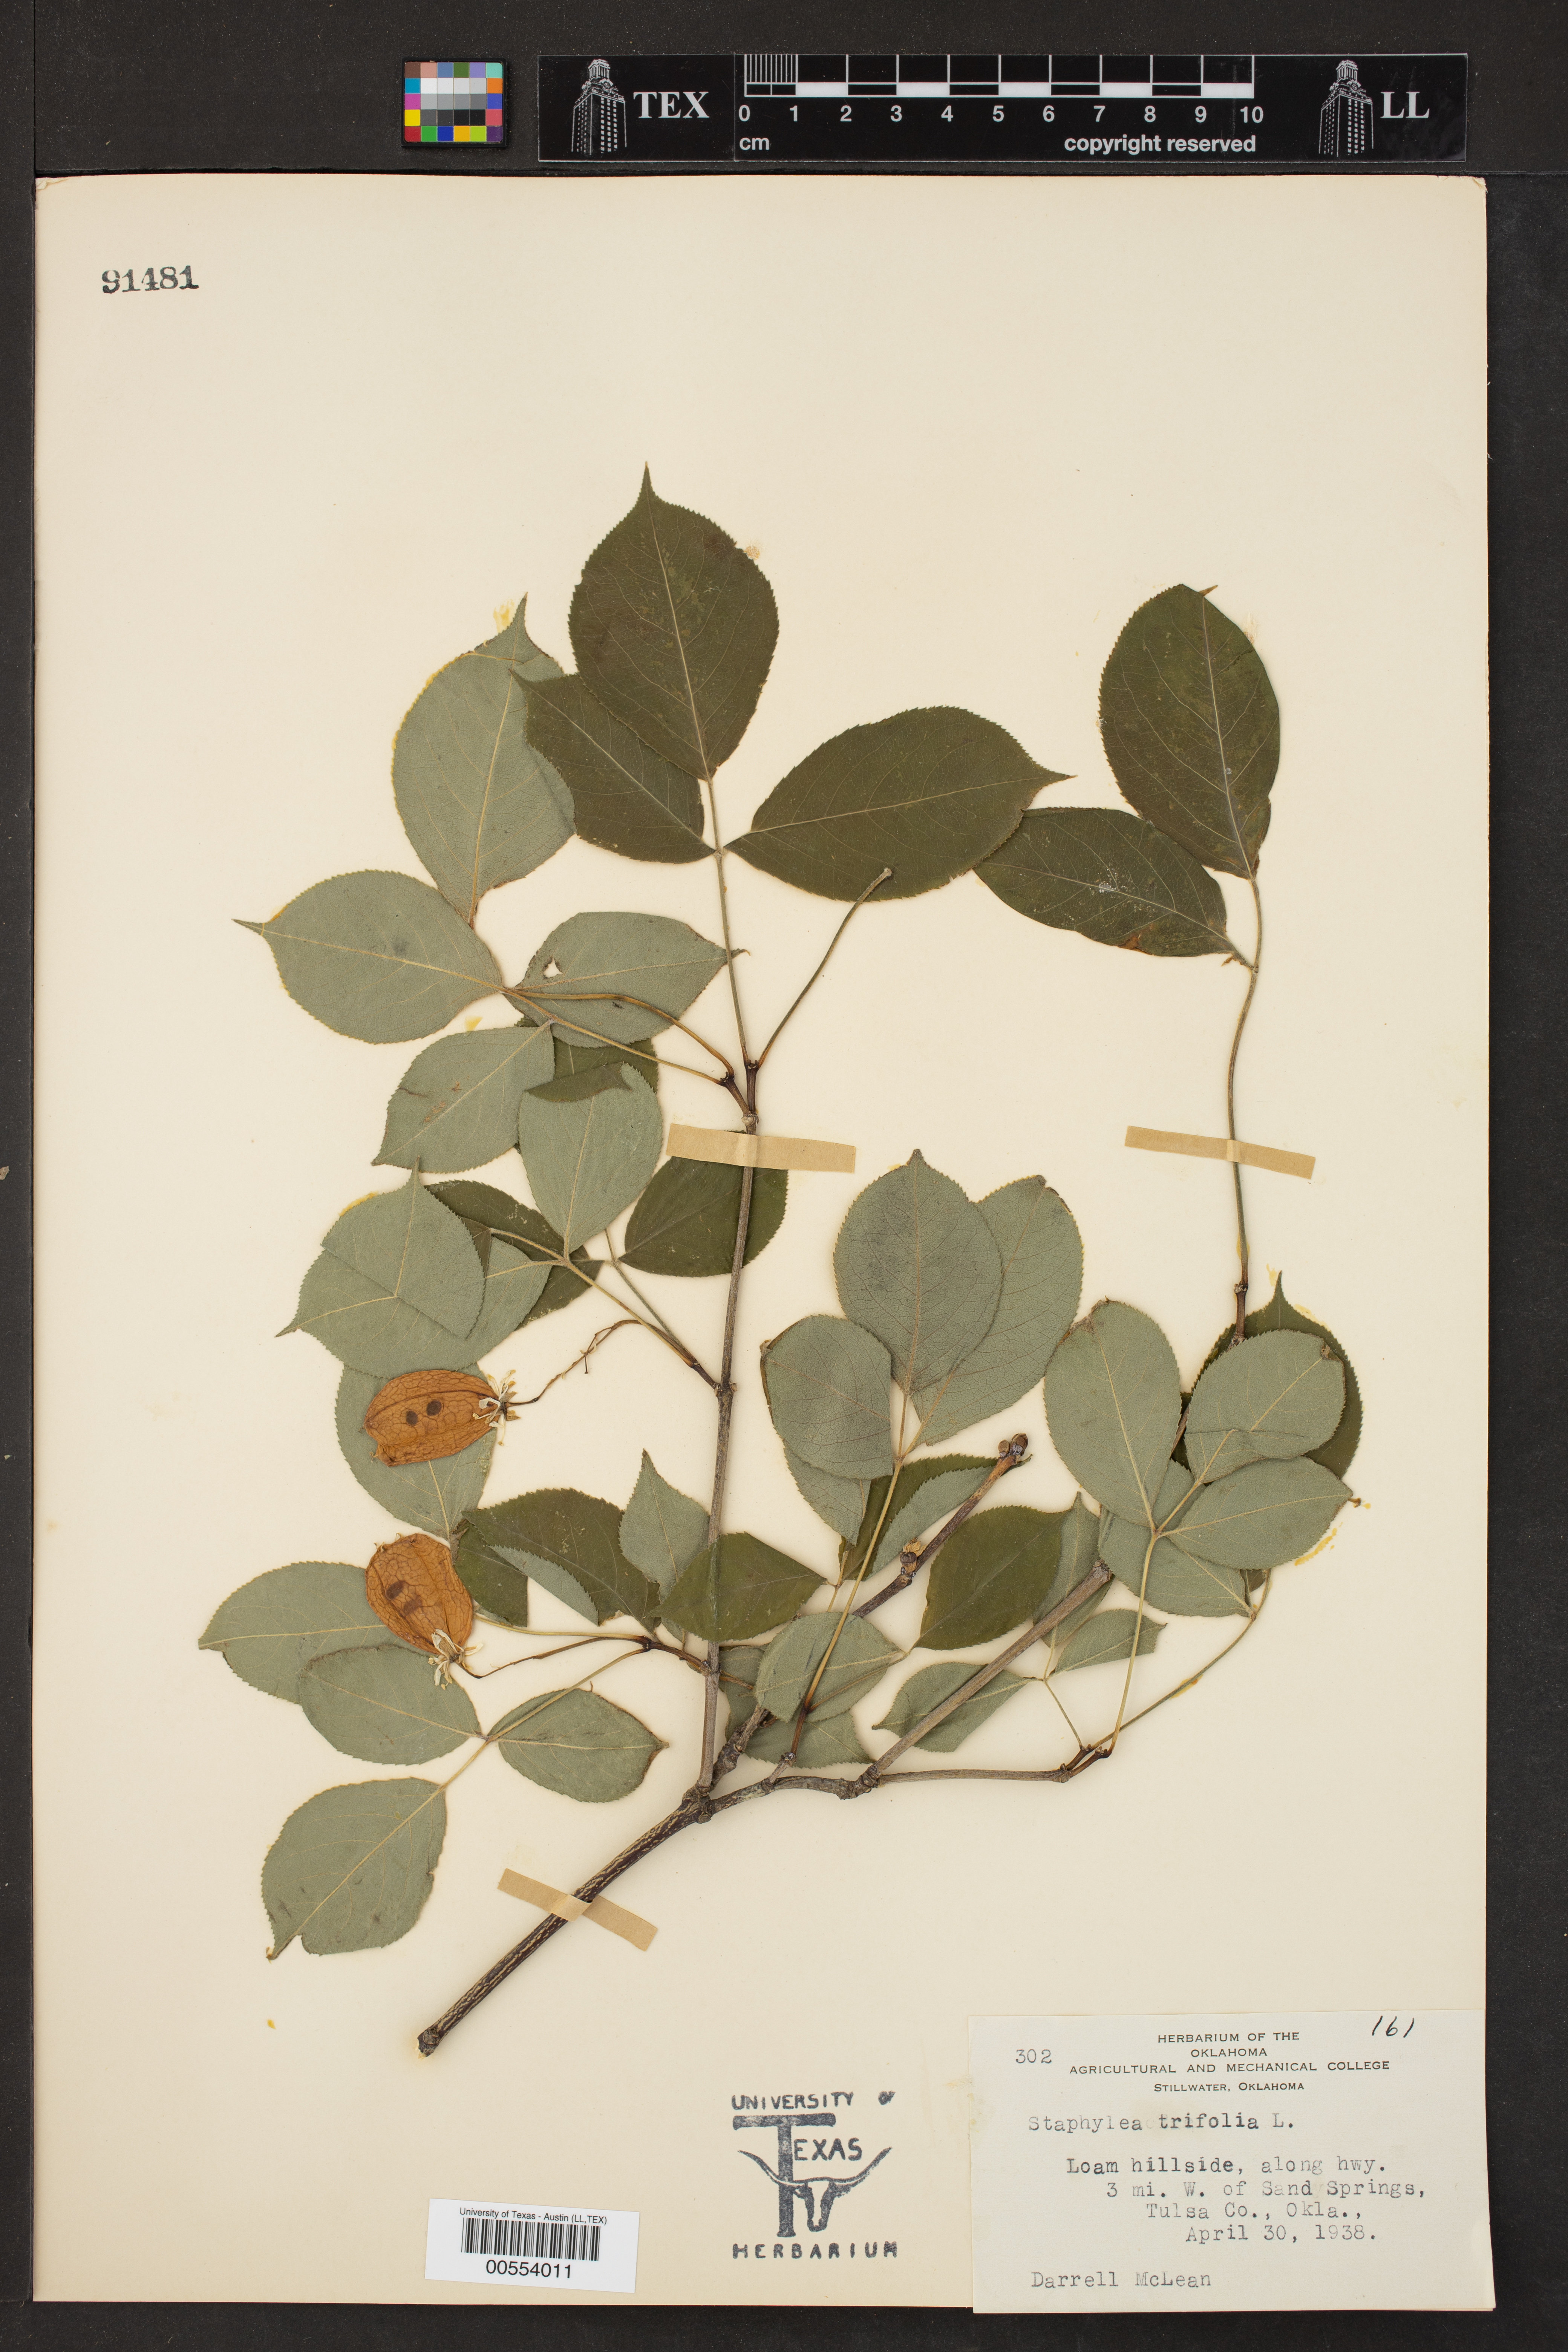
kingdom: Plantae
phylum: Tracheophyta
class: Magnoliopsida
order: Crossosomatales
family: Staphyleaceae
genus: Staphylea
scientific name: Staphylea trifolia
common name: American bladdernut
